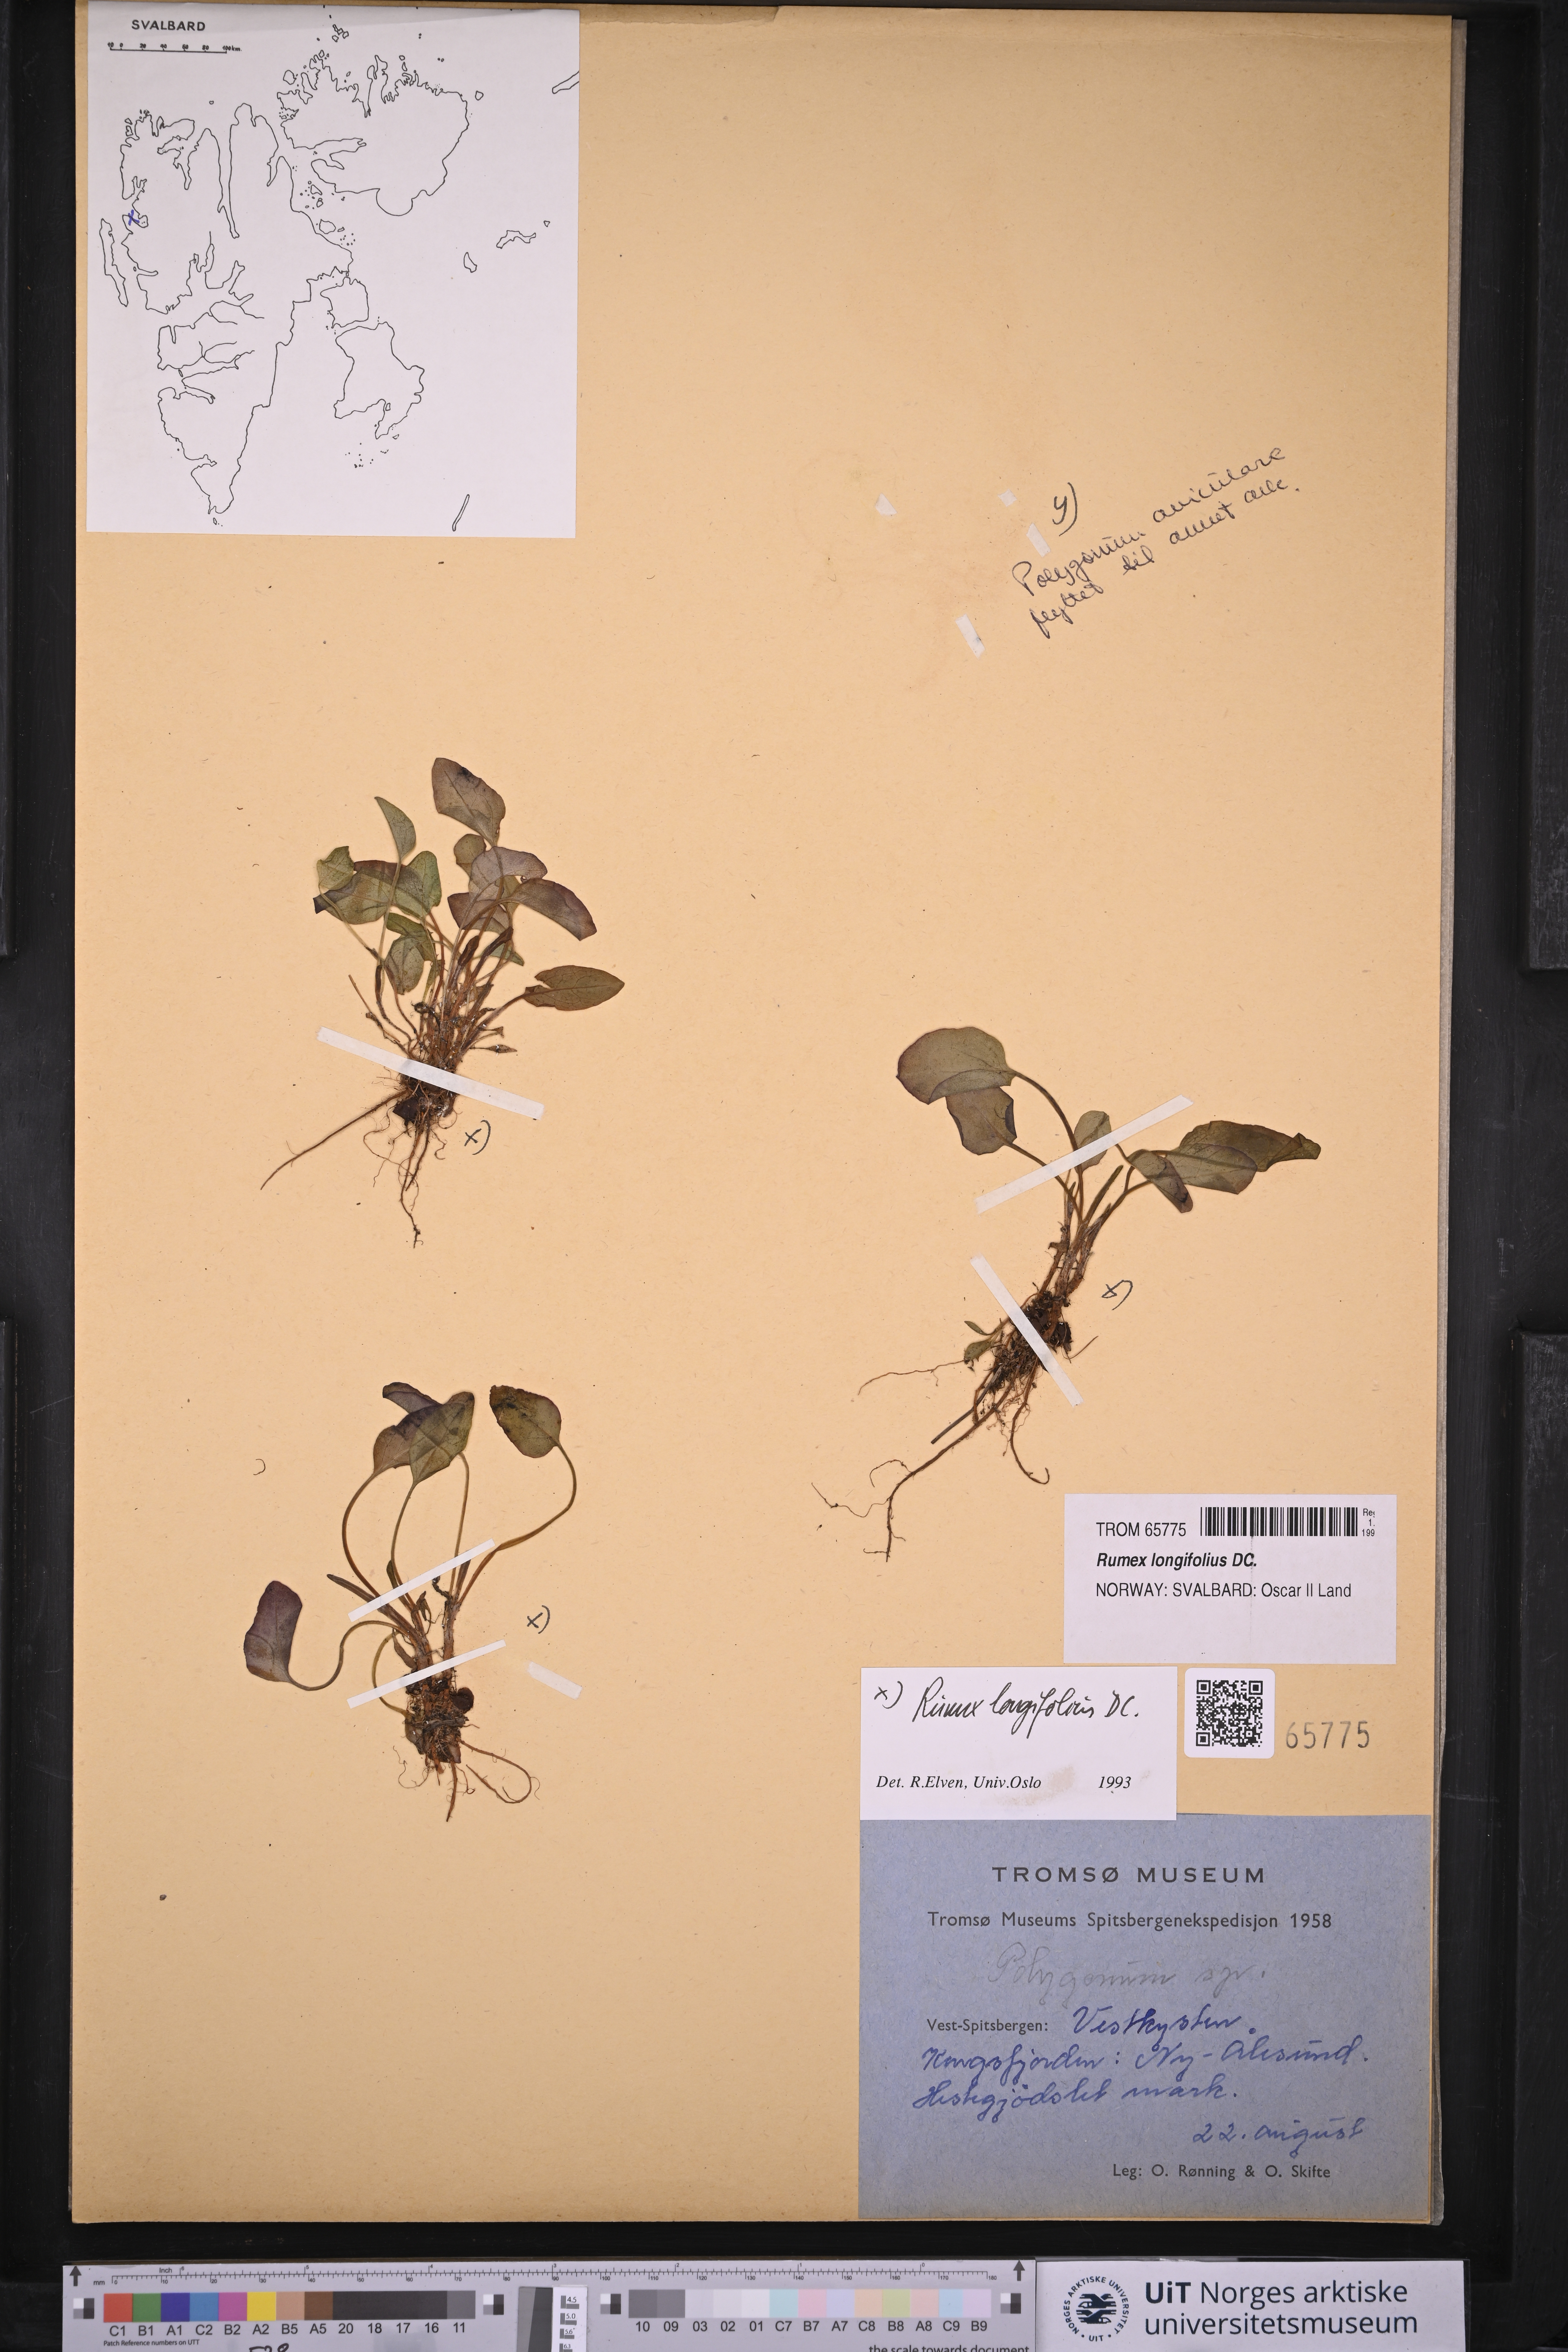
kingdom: Plantae
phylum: Tracheophyta
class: Magnoliopsida
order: Caryophyllales
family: Polygonaceae
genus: Rumex
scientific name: Rumex longifolius
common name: Dooryard dock
